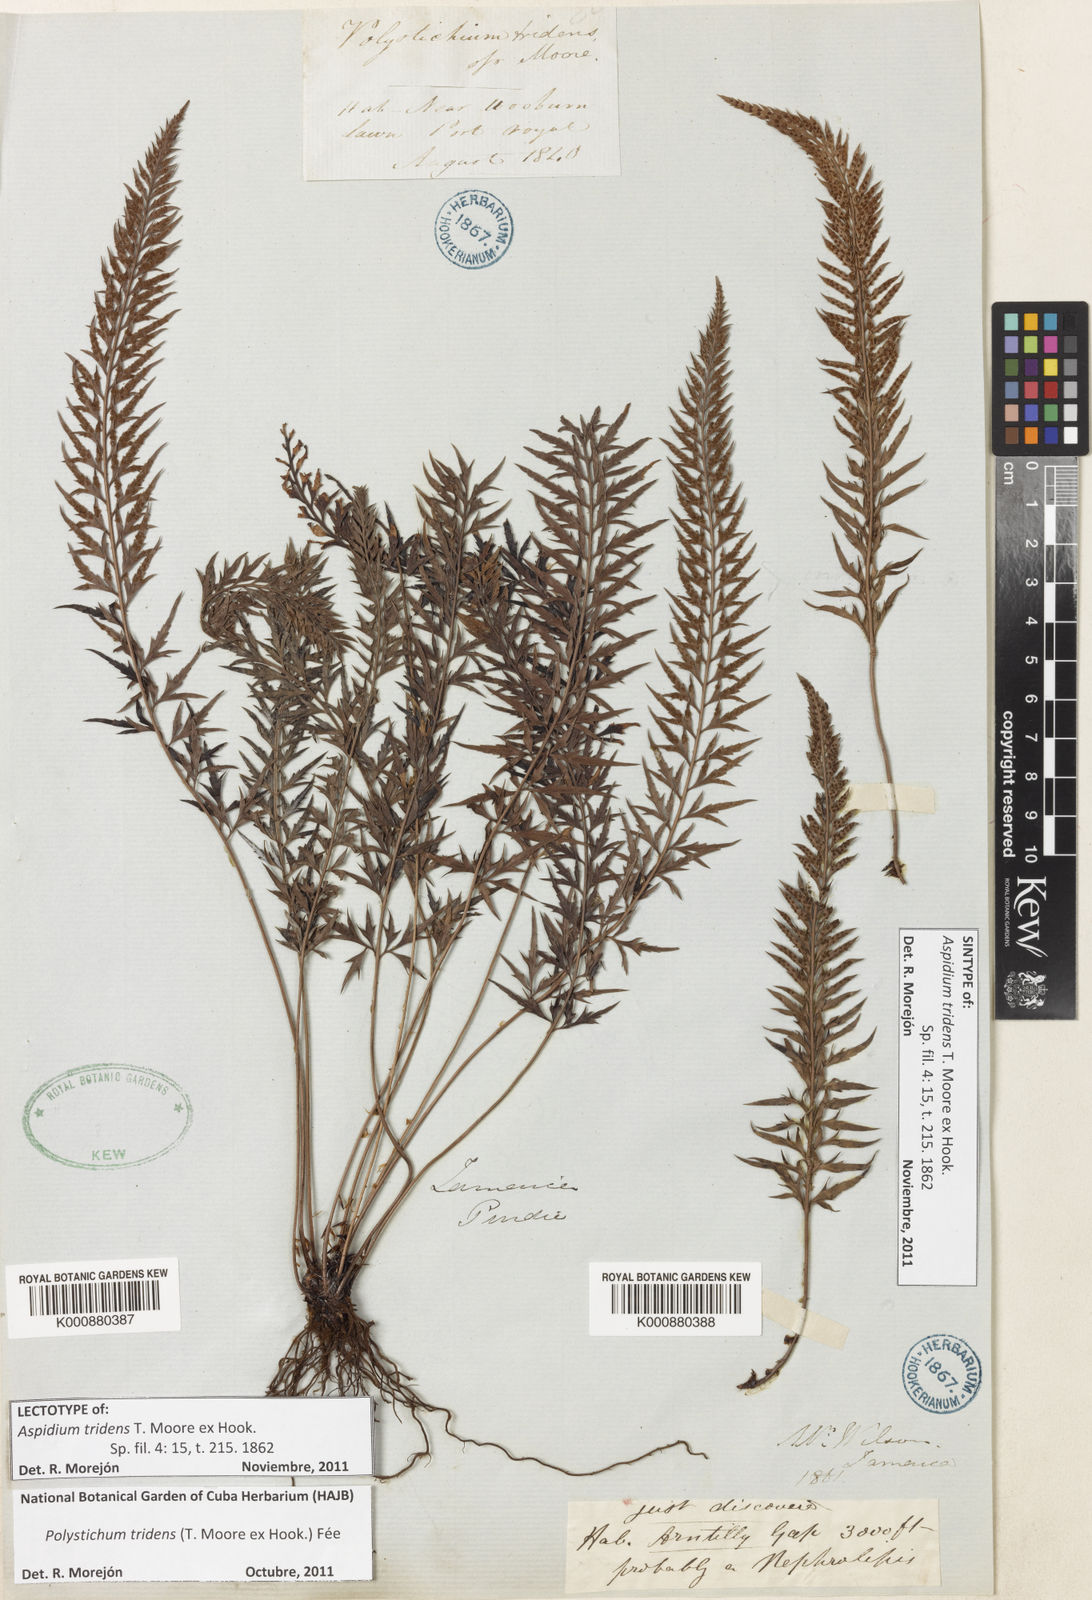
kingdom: Plantae
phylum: Tracheophyta
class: Polypodiopsida
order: Polypodiales
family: Dryopteridaceae
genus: Polystichum
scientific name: Polystichum
